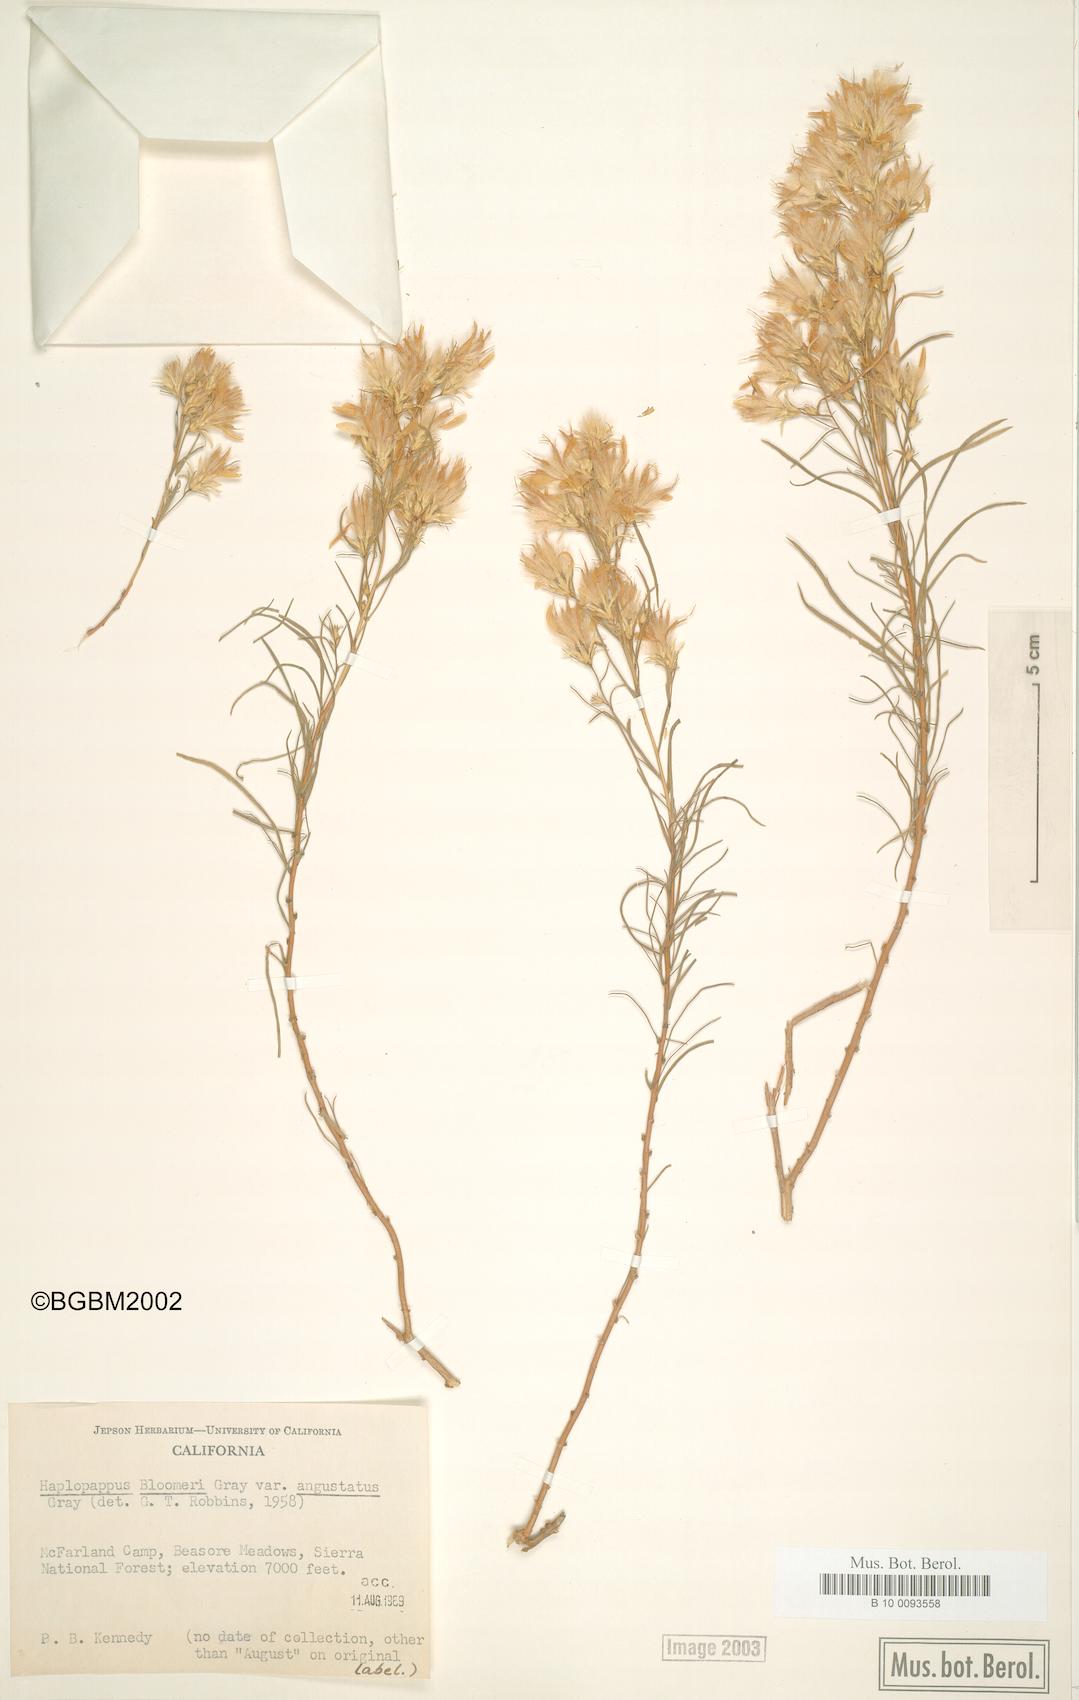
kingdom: Plantae
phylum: Tracheophyta
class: Magnoliopsida
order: Asterales
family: Asteraceae
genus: Ericameria
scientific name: Ericameria bloomeri
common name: Bloomer's goldenbush
